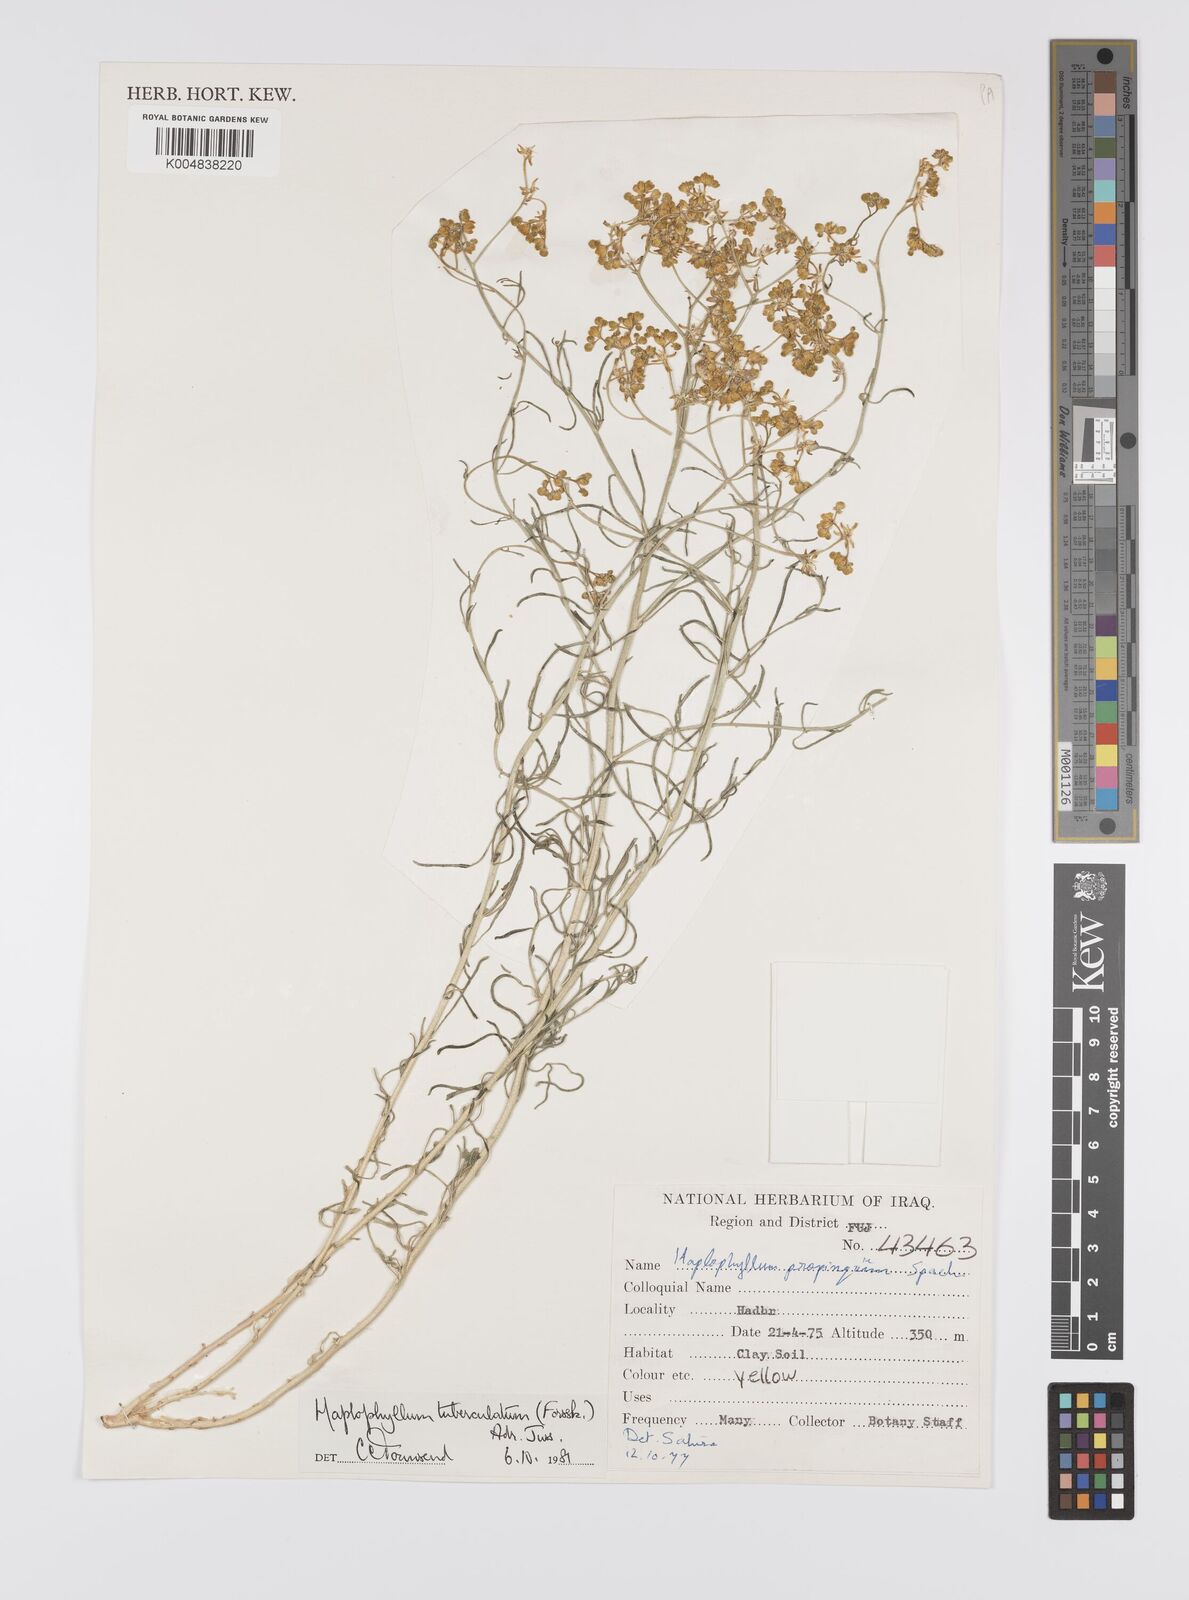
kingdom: Plantae
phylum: Tracheophyta
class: Magnoliopsida
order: Sapindales
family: Rutaceae
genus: Haplophyllum
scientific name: Haplophyllum tuberculatum
